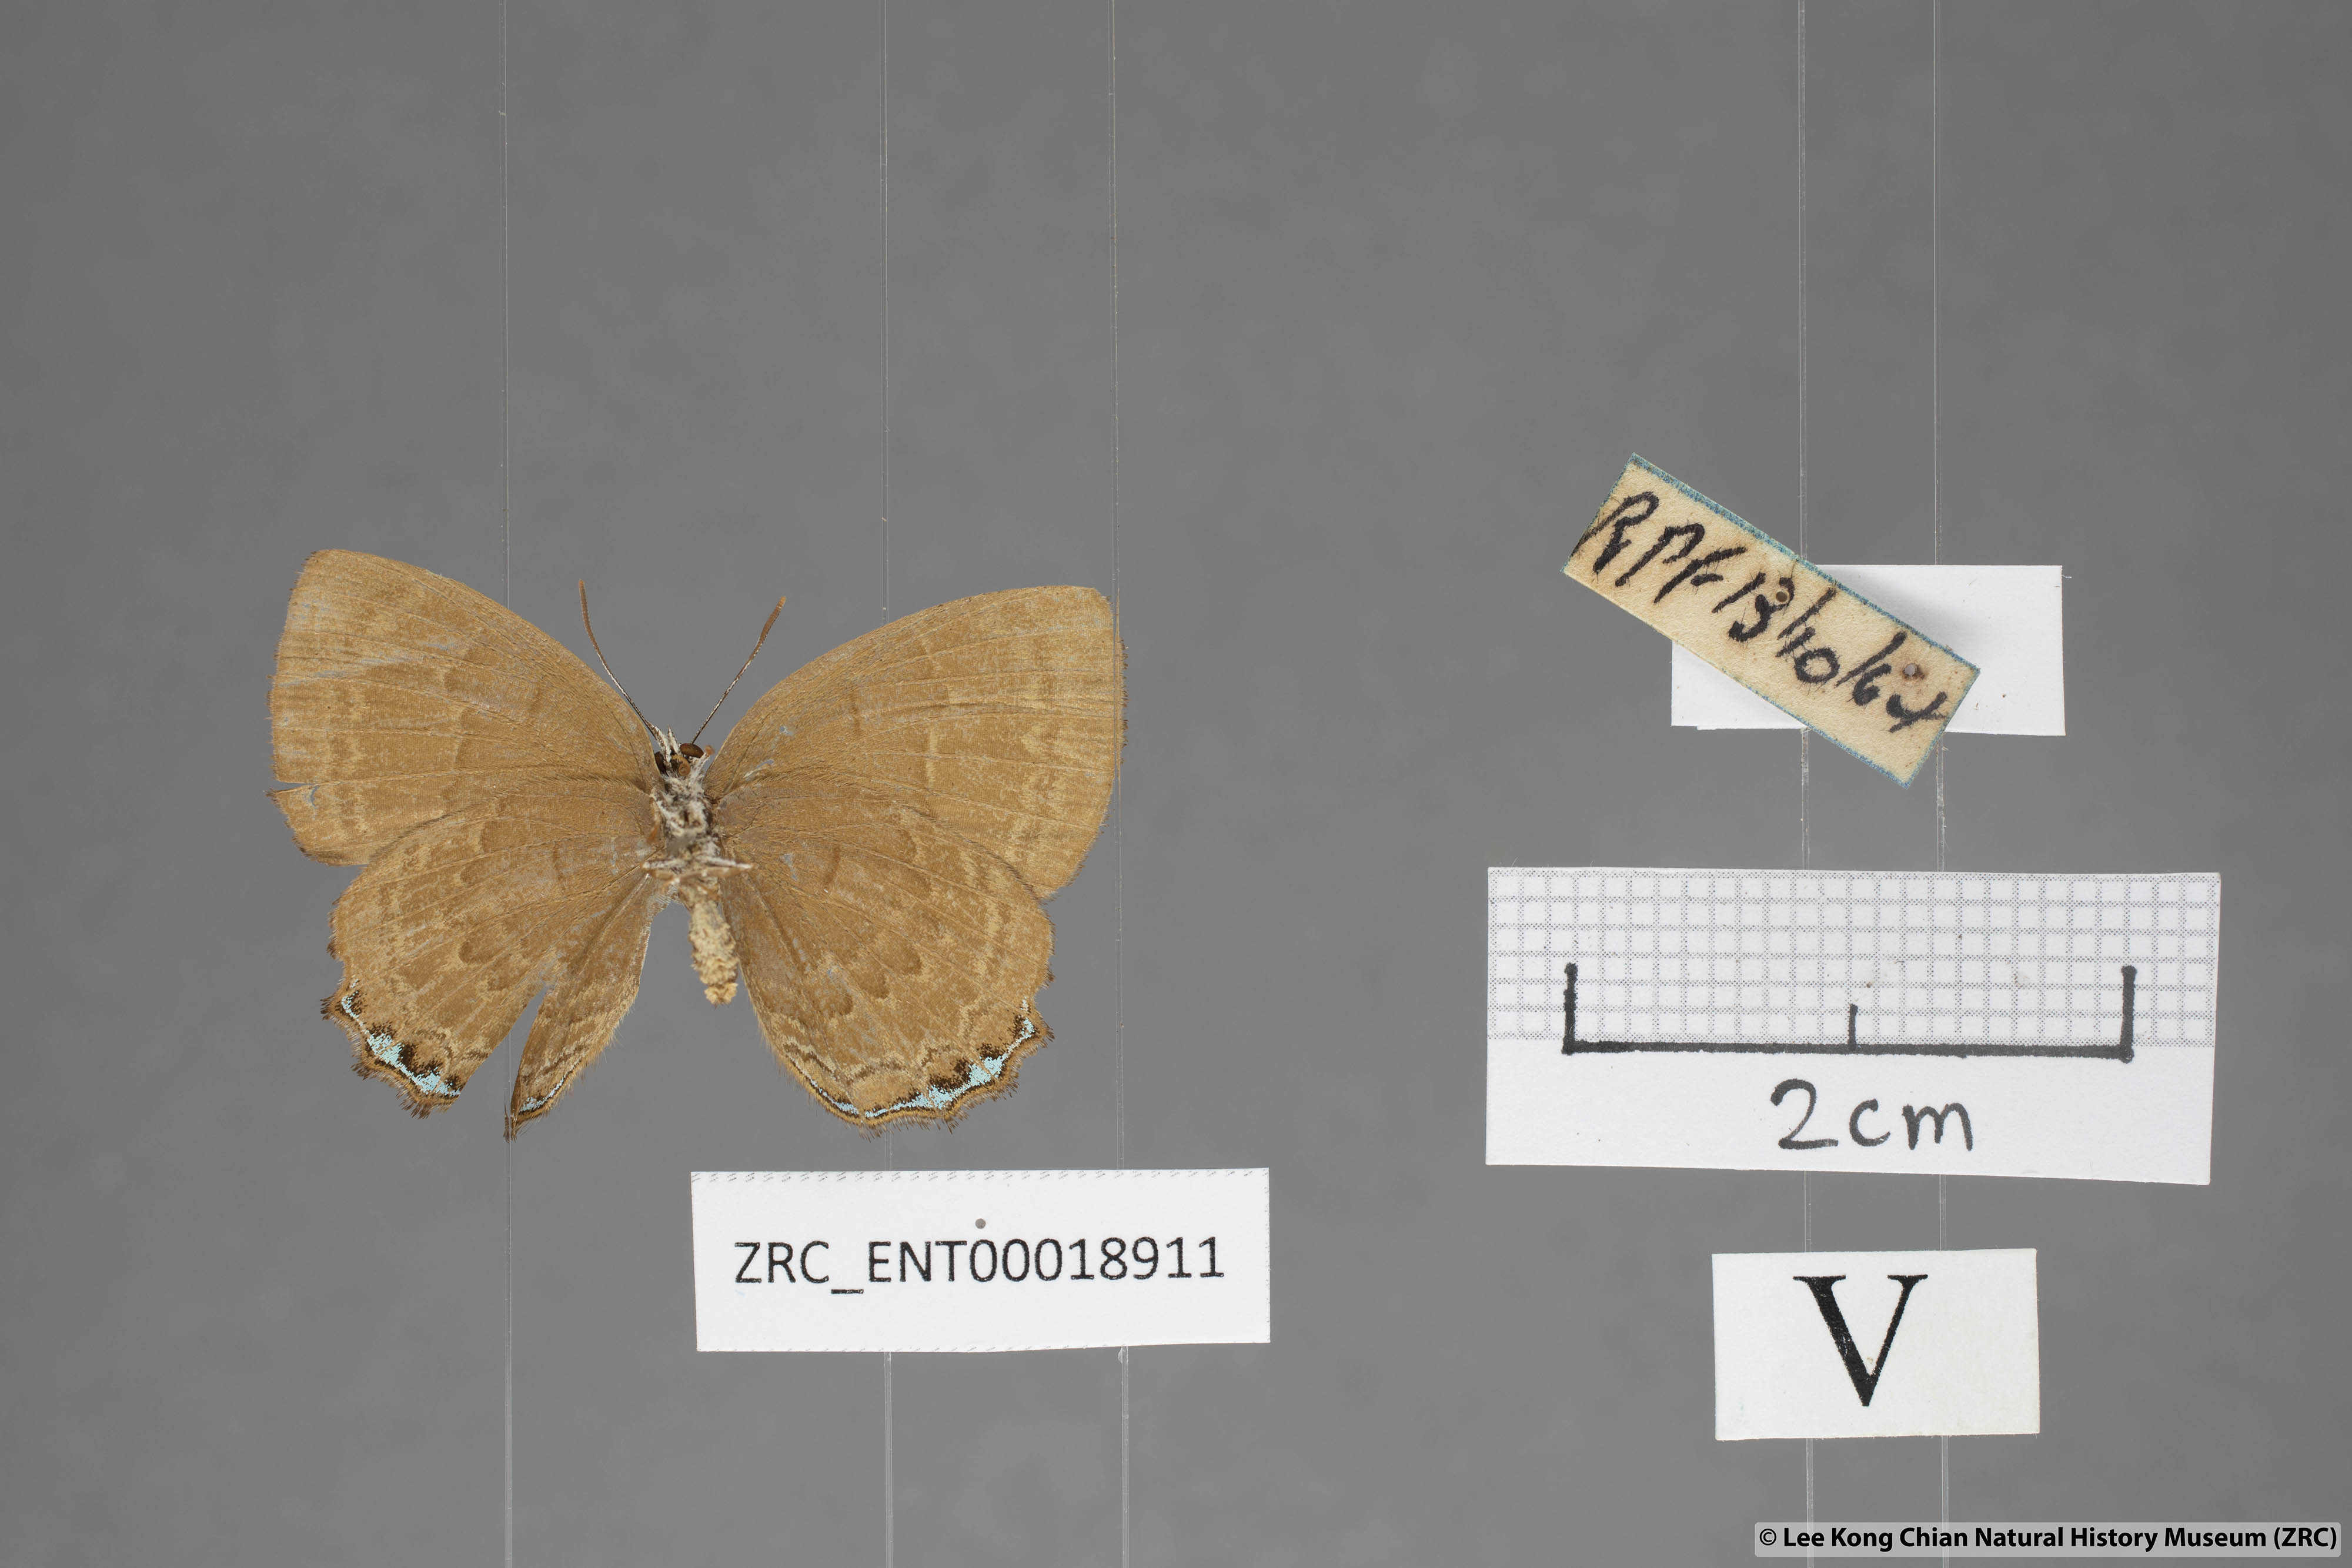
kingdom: Animalia
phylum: Arthropoda
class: Insecta
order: Lepidoptera
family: Lycaenidae
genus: Simiskina
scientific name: Simiskina
